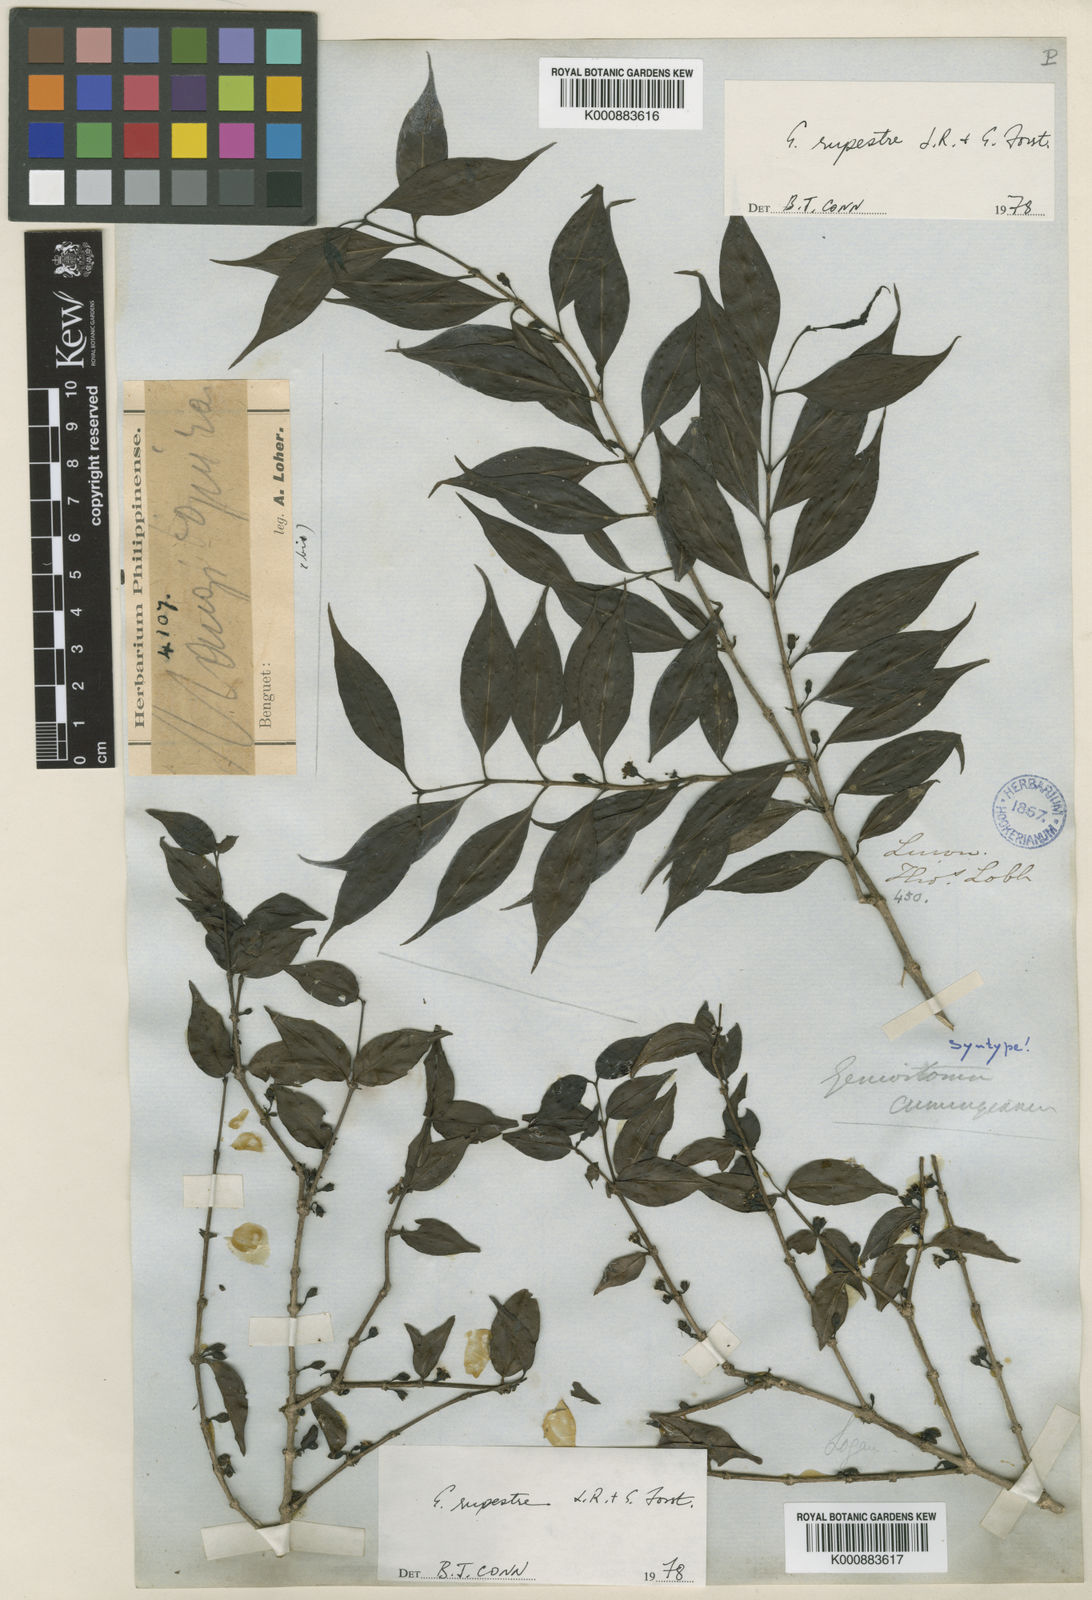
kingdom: Plantae
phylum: Tracheophyta
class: Magnoliopsida
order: Gentianales
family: Loganiaceae
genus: Geniostoma
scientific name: Geniostoma rupestre
